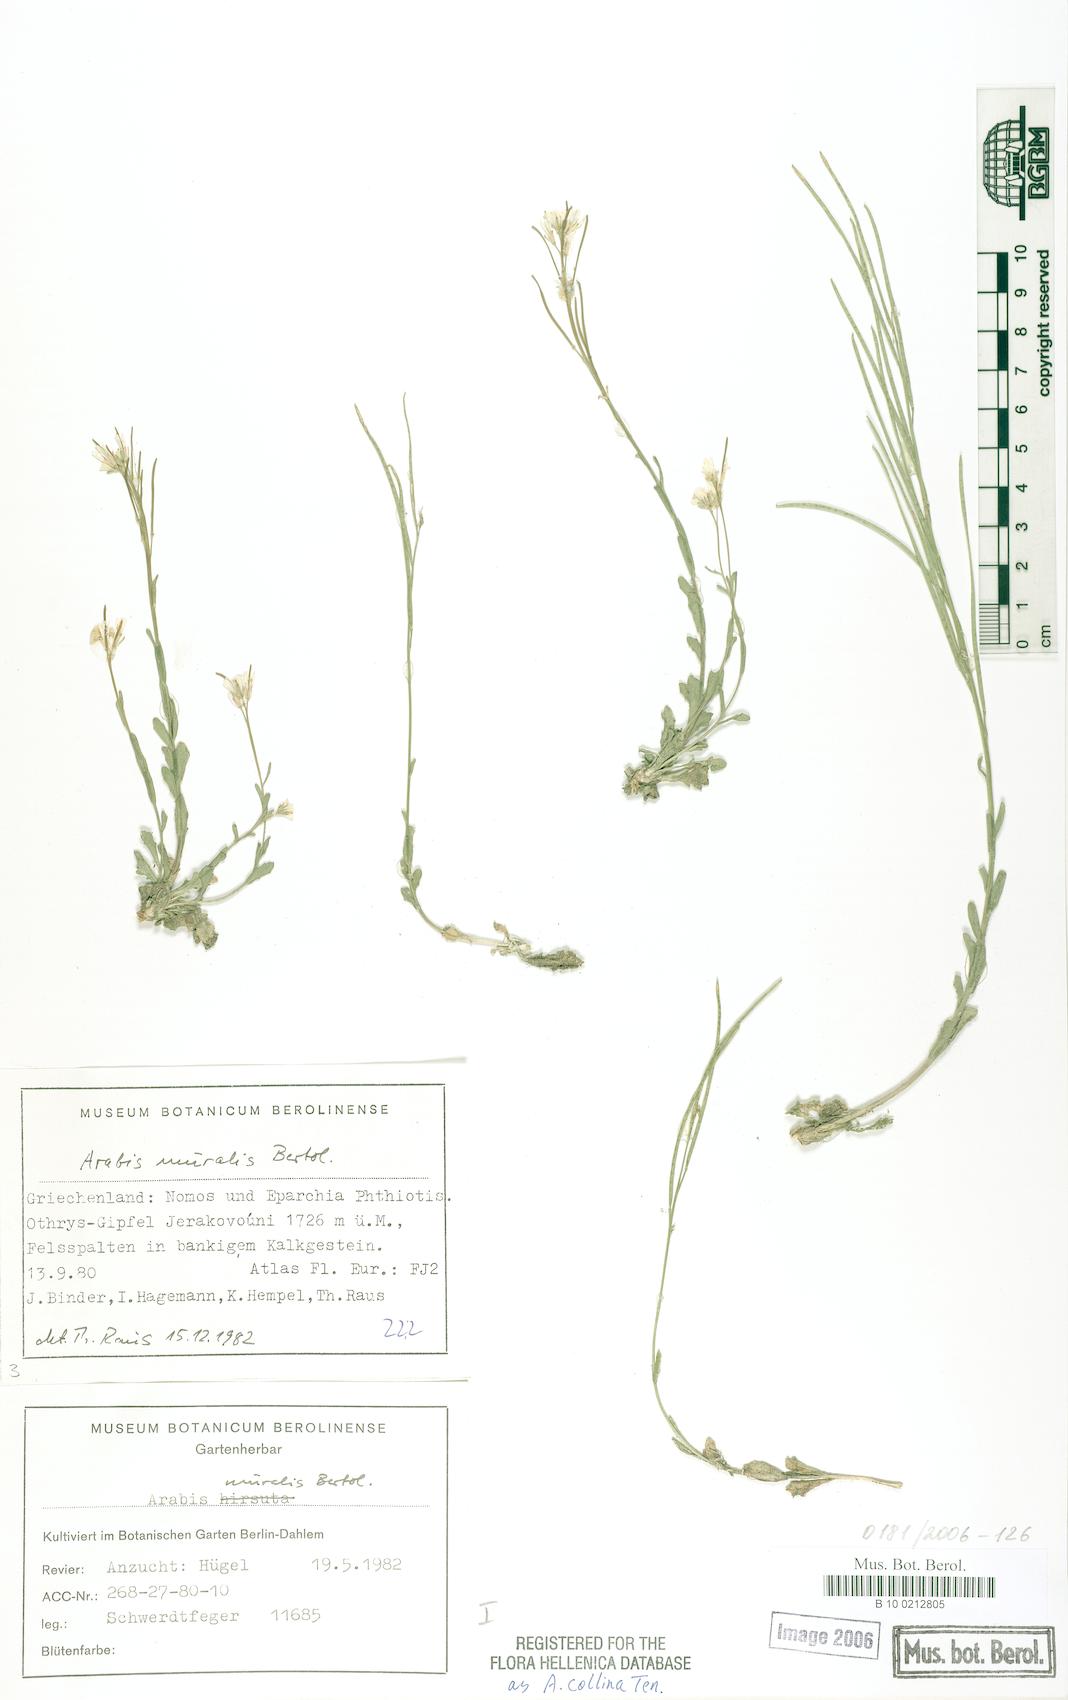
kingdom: Plantae
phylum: Tracheophyta
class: Magnoliopsida
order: Brassicales
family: Brassicaceae
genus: Arabis
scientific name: Arabis collina
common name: Rosy cress
